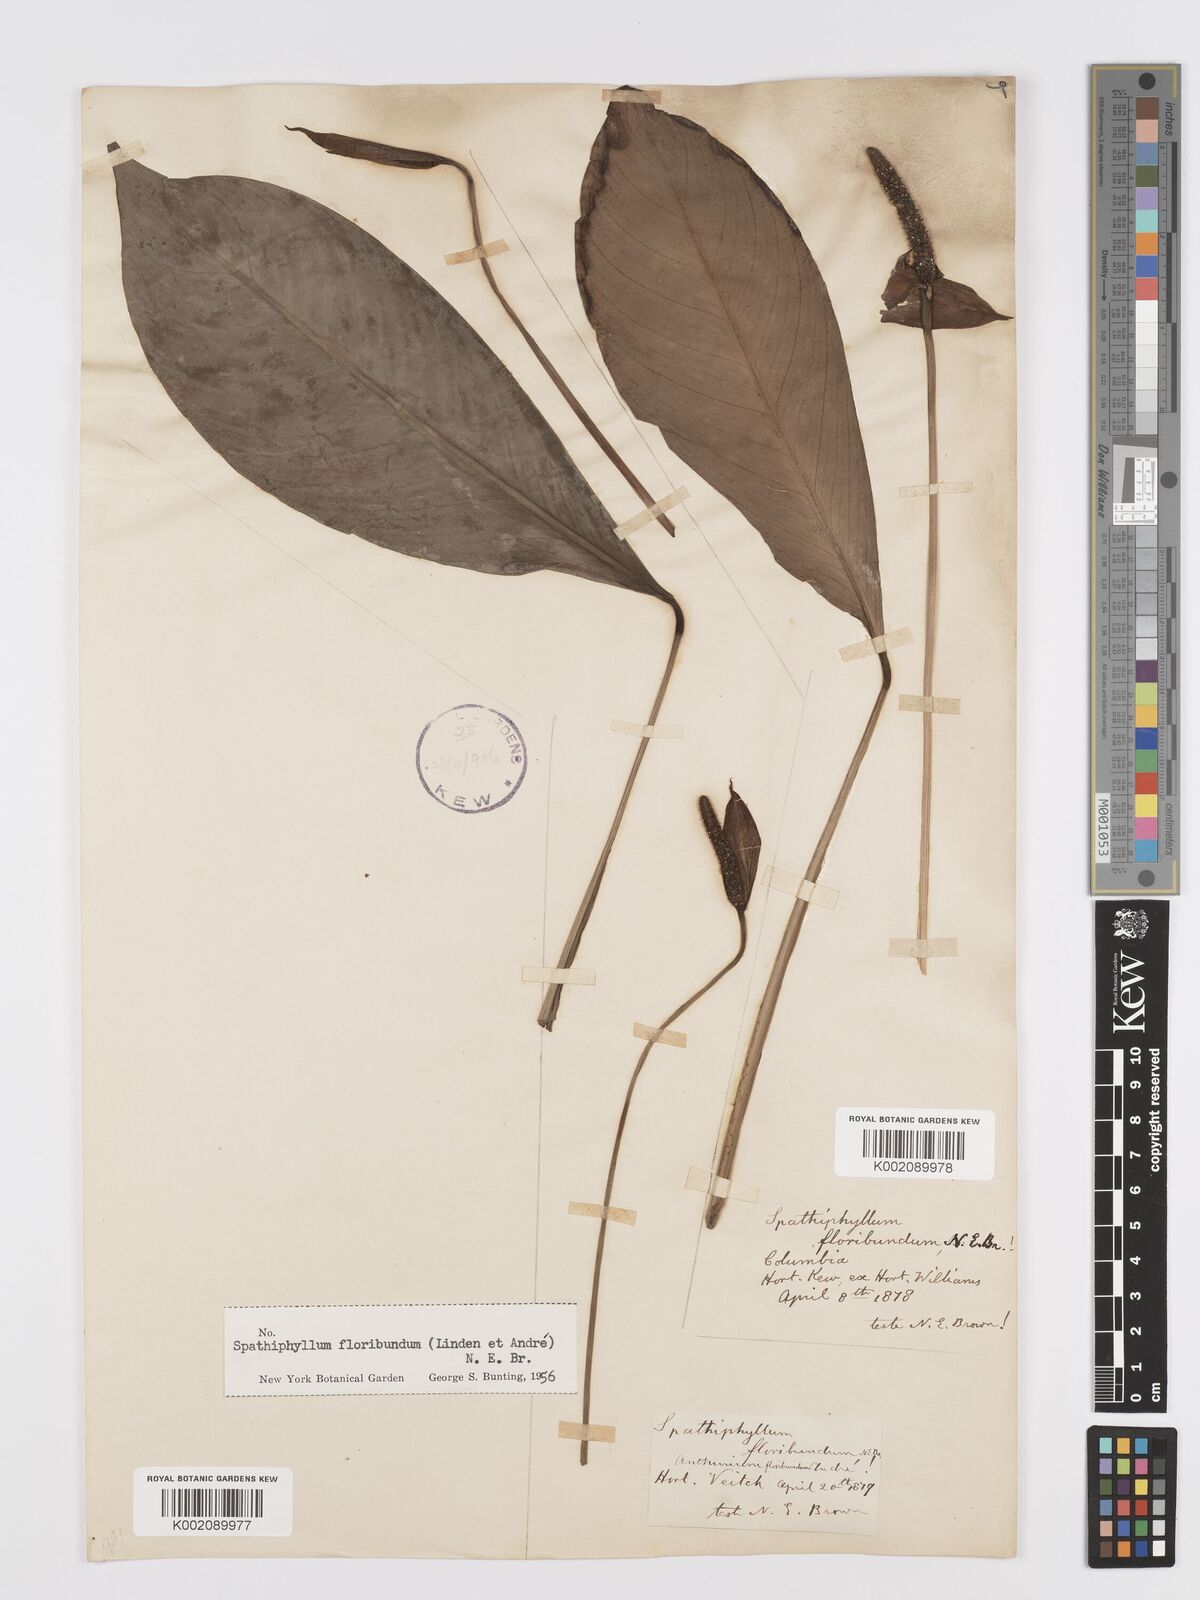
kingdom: Plantae
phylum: Tracheophyta
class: Liliopsida
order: Alismatales
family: Araceae
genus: Spathiphyllum
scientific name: Spathiphyllum floribundum
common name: Peace-lily
